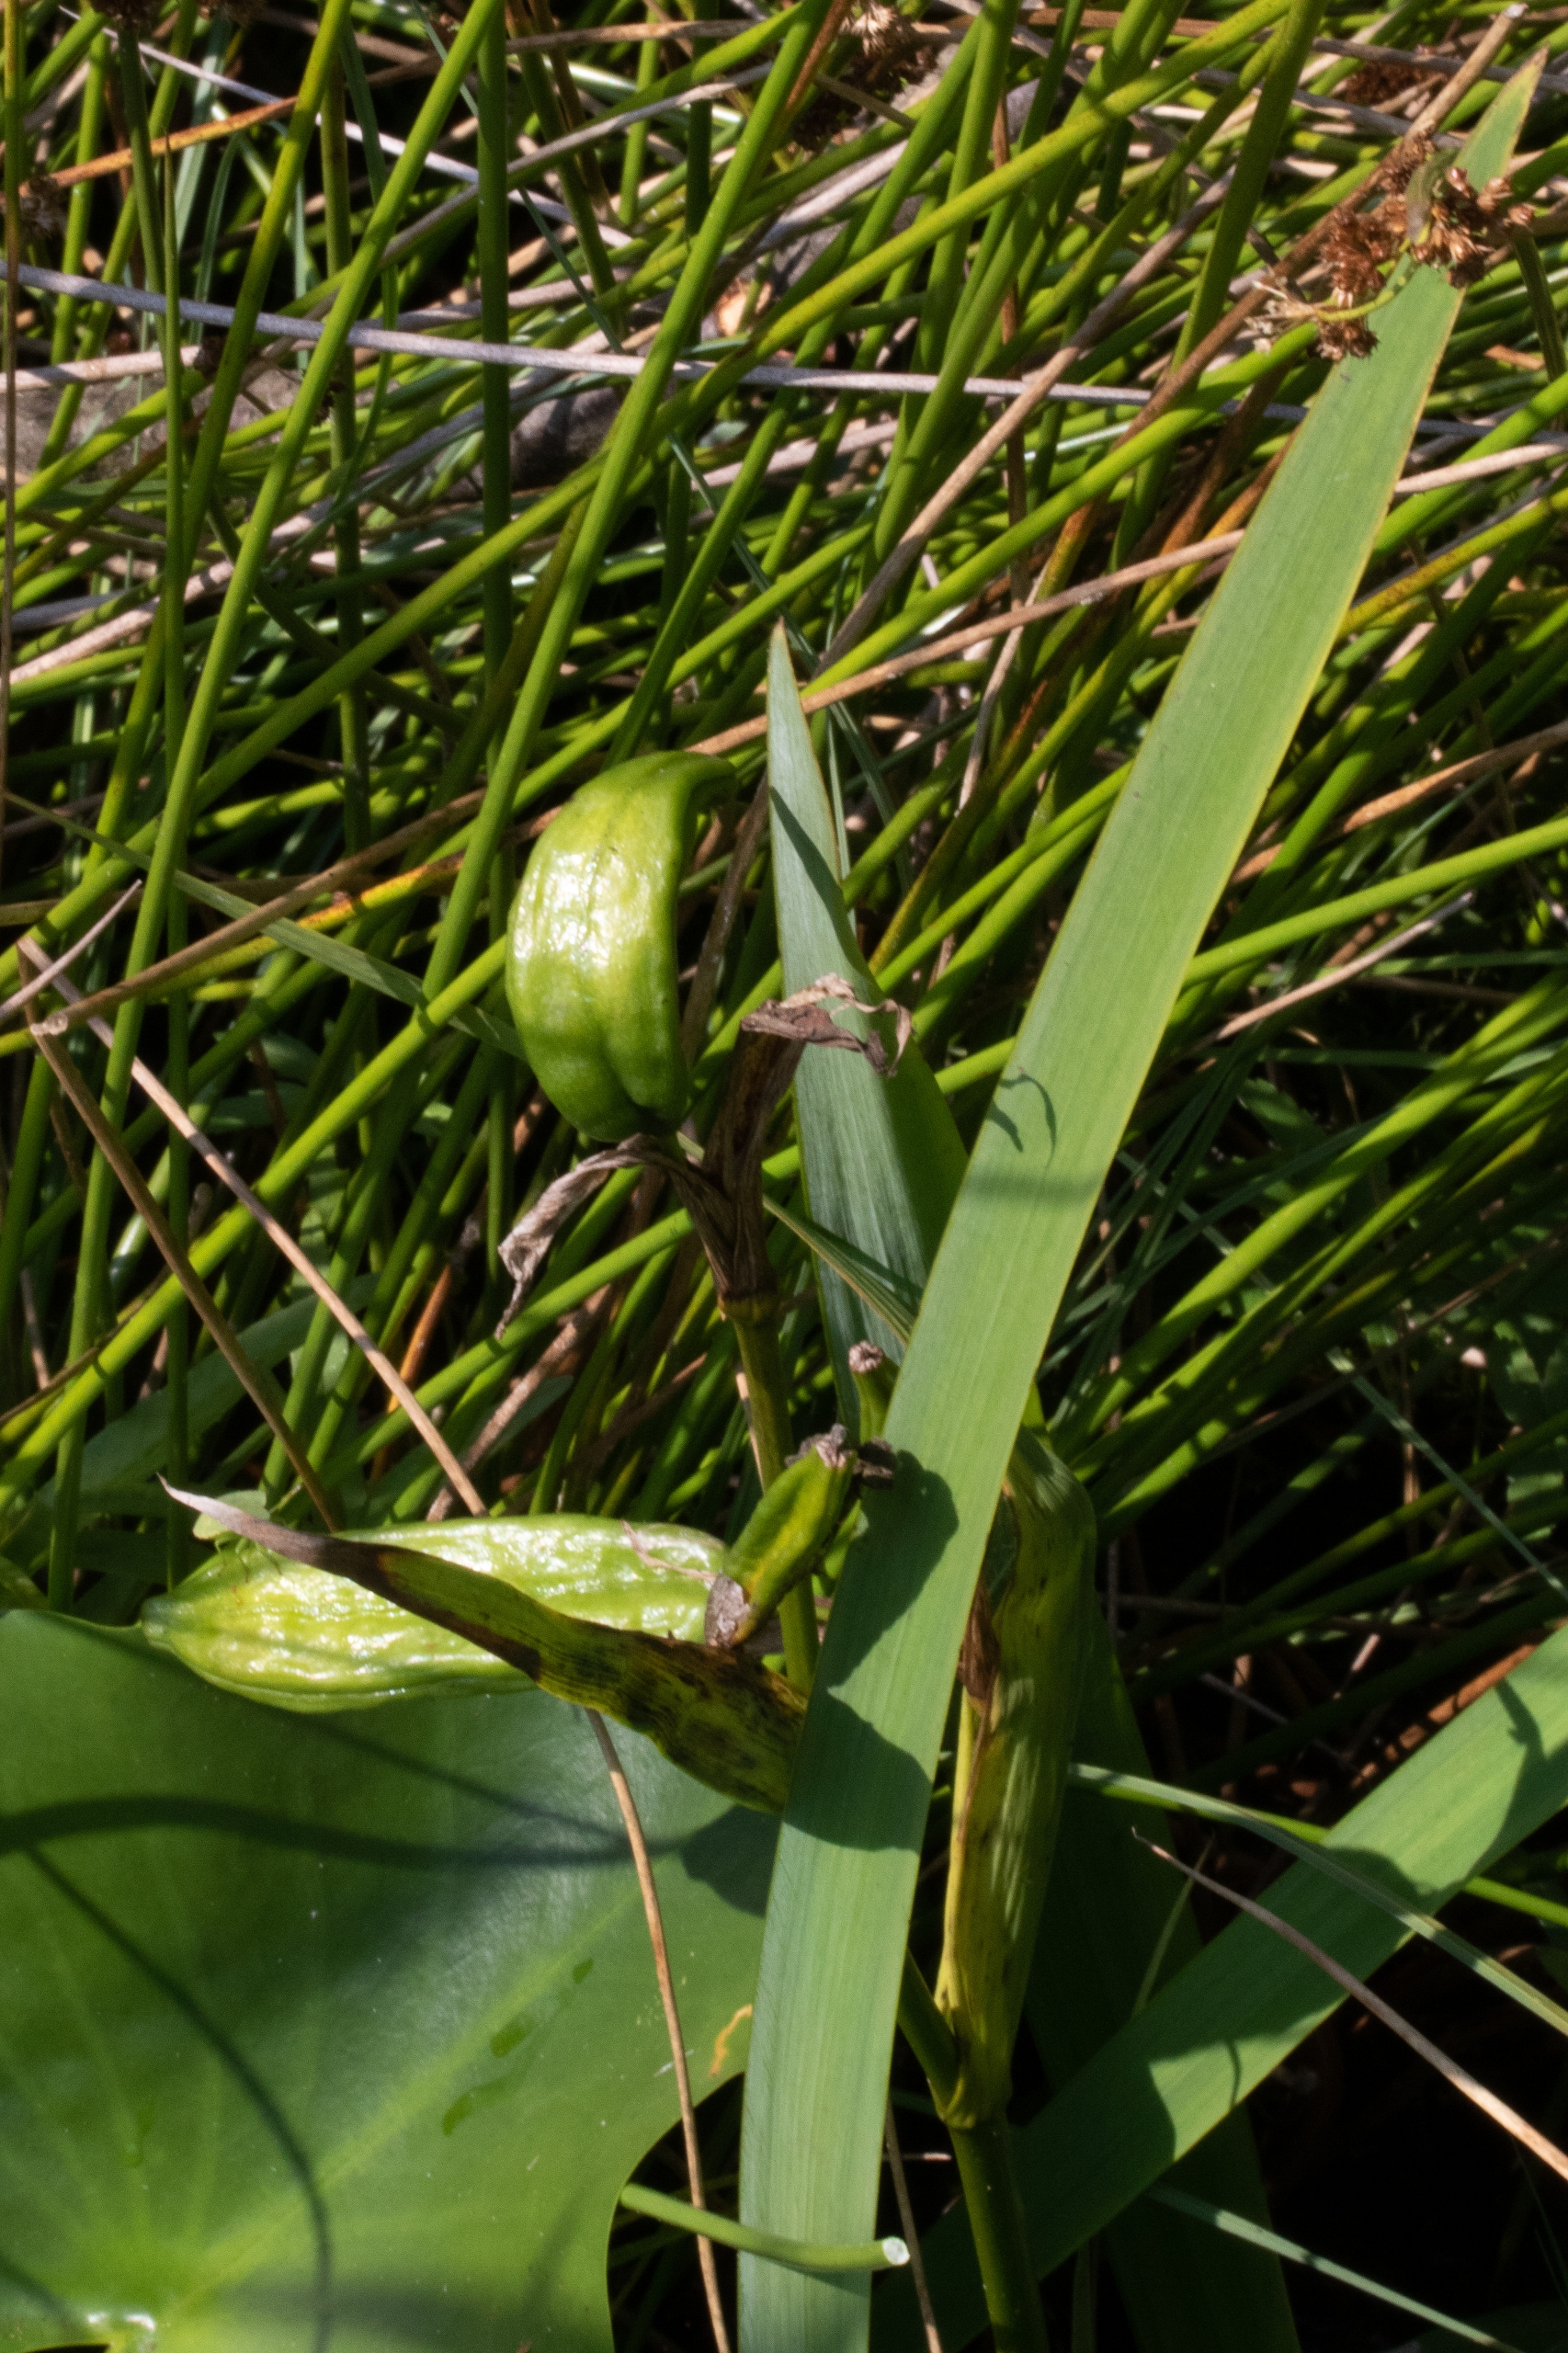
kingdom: Plantae
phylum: Tracheophyta
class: Liliopsida
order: Asparagales
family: Iridaceae
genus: Iris
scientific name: Iris pseudacorus
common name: Gul iris
